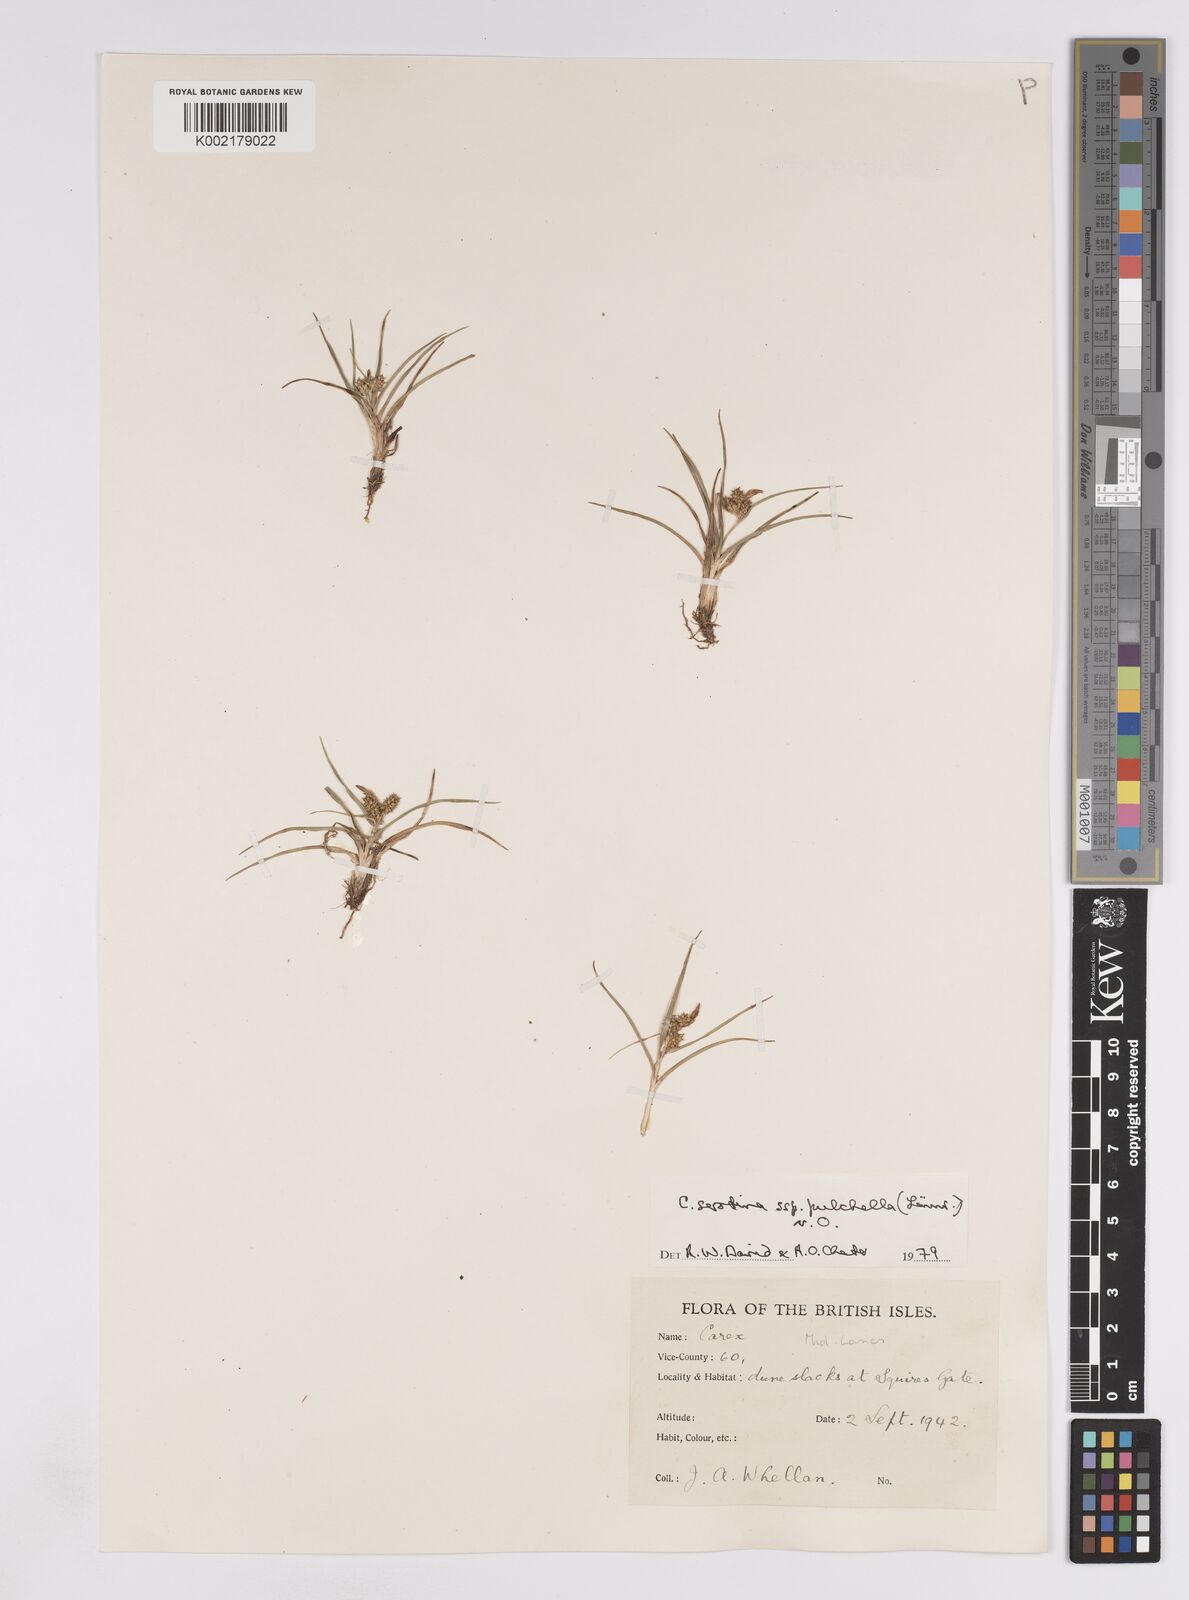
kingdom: Plantae
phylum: Tracheophyta
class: Liliopsida
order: Poales
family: Cyperaceae
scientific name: Cyperaceae
